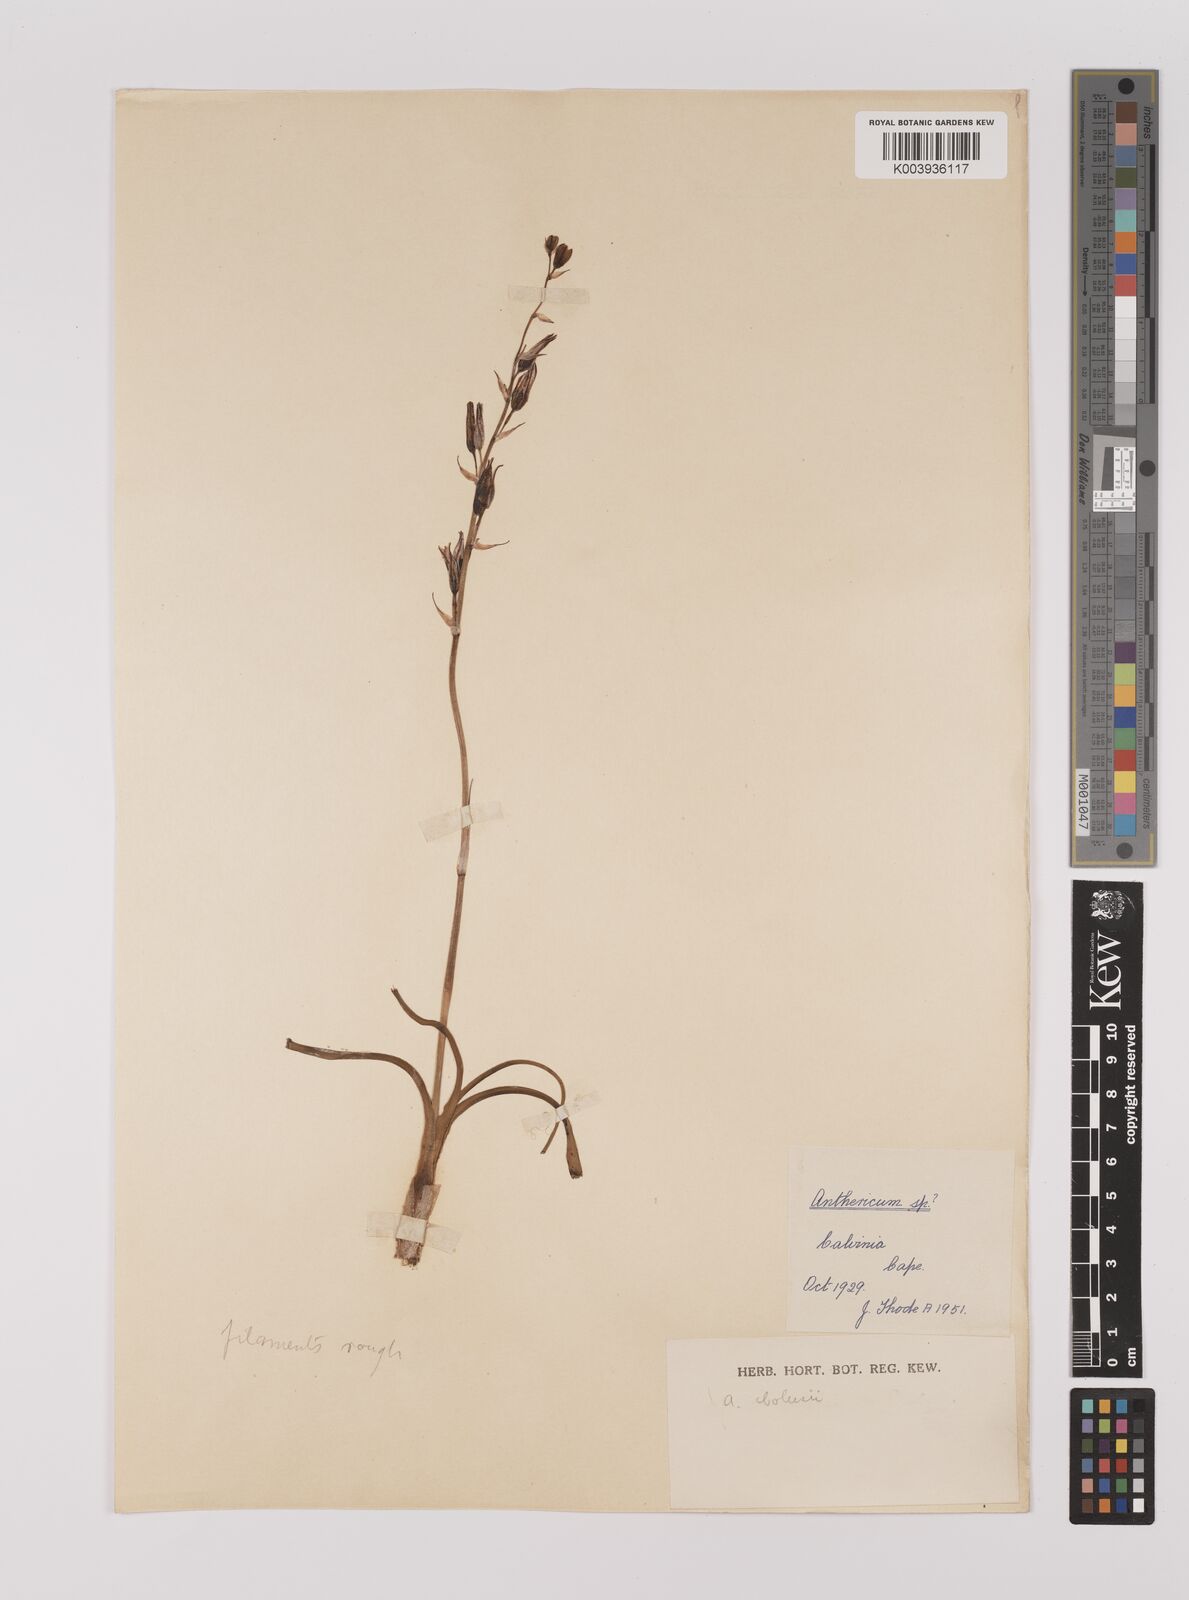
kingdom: Plantae
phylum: Tracheophyta
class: Liliopsida
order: Asparagales
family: Asparagaceae
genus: Chlorophytum
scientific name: Chlorophytum graminifolium
